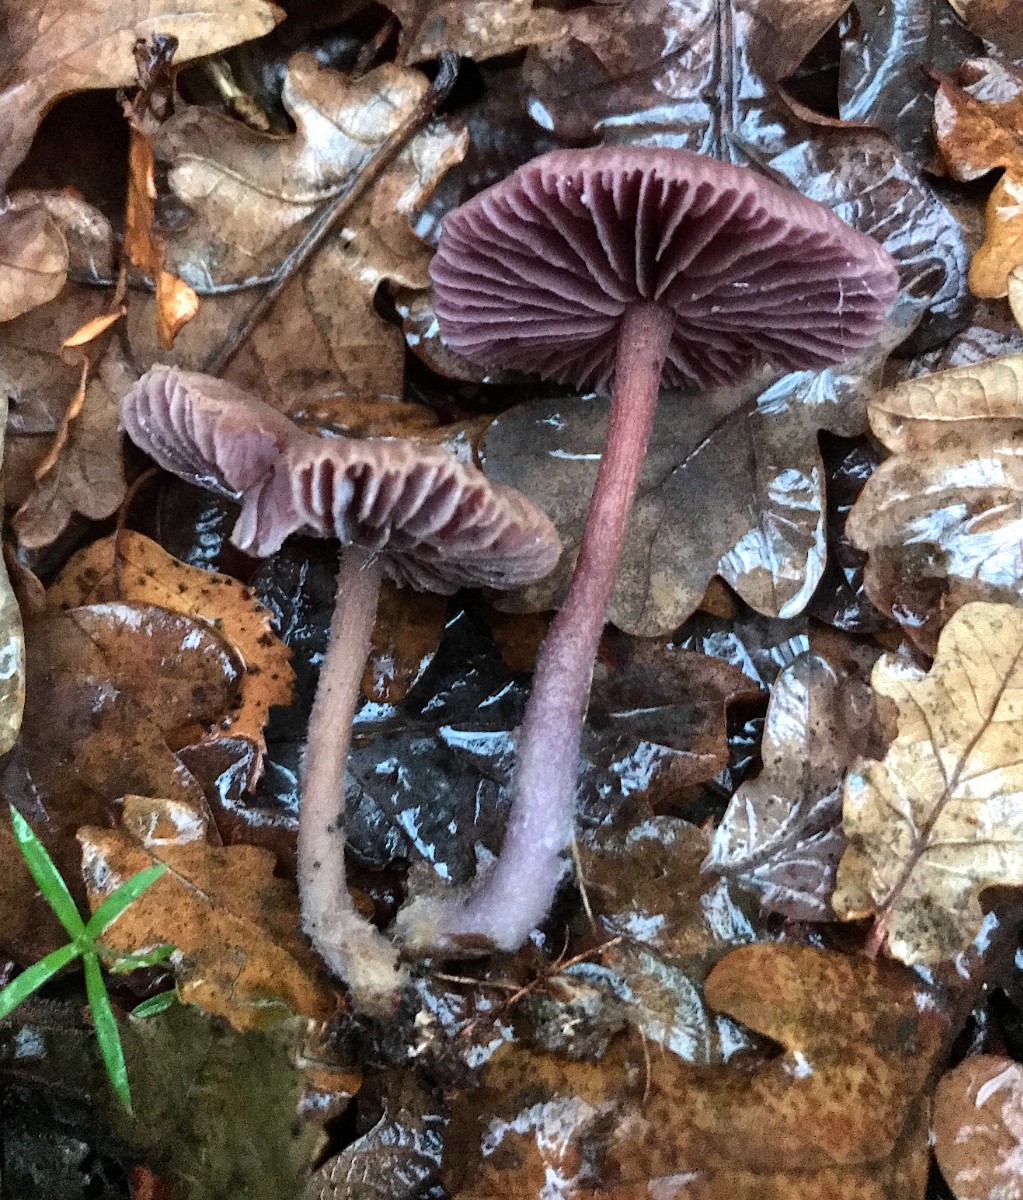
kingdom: Fungi
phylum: Basidiomycota
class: Agaricomycetes
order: Agaricales
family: Hydnangiaceae
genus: Laccaria
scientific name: Laccaria amethystina
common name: violet ametysthat
